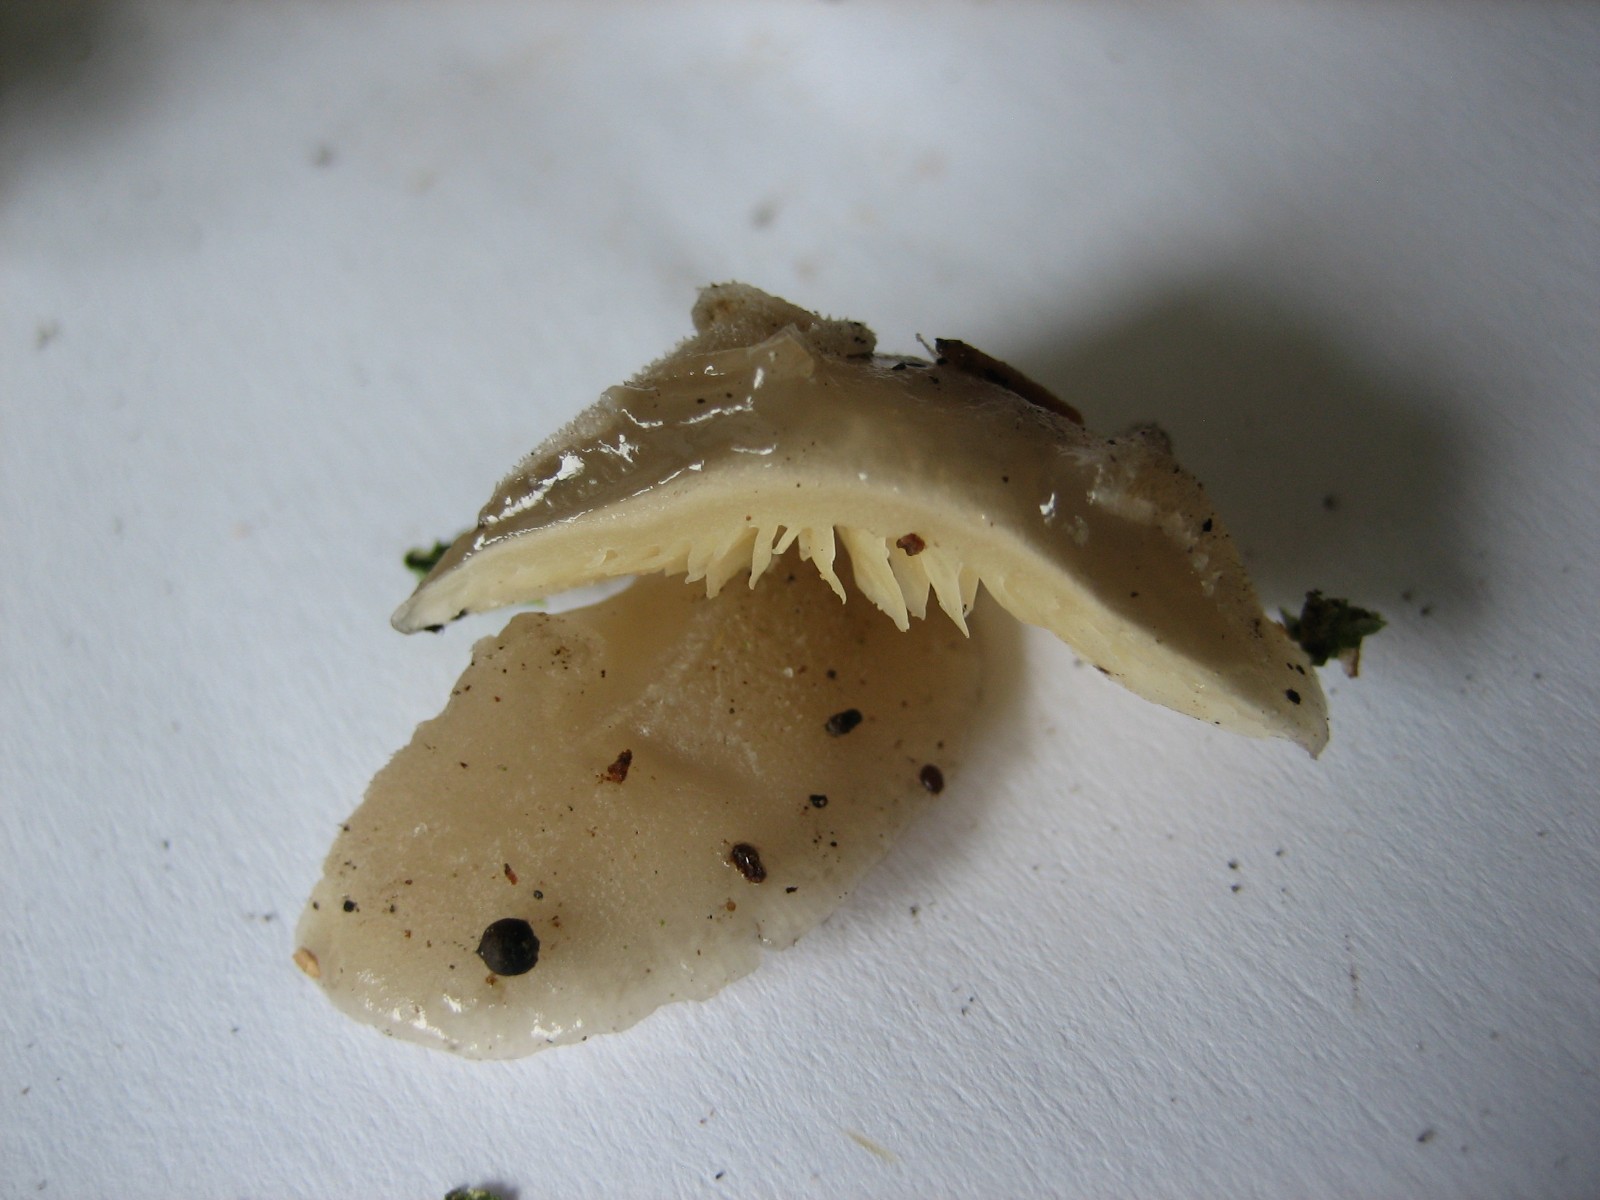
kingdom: Fungi
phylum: Basidiomycota
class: Agaricomycetes
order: Agaricales
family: Pleurotaceae
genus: Hohenbuehelia
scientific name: Hohenbuehelia
